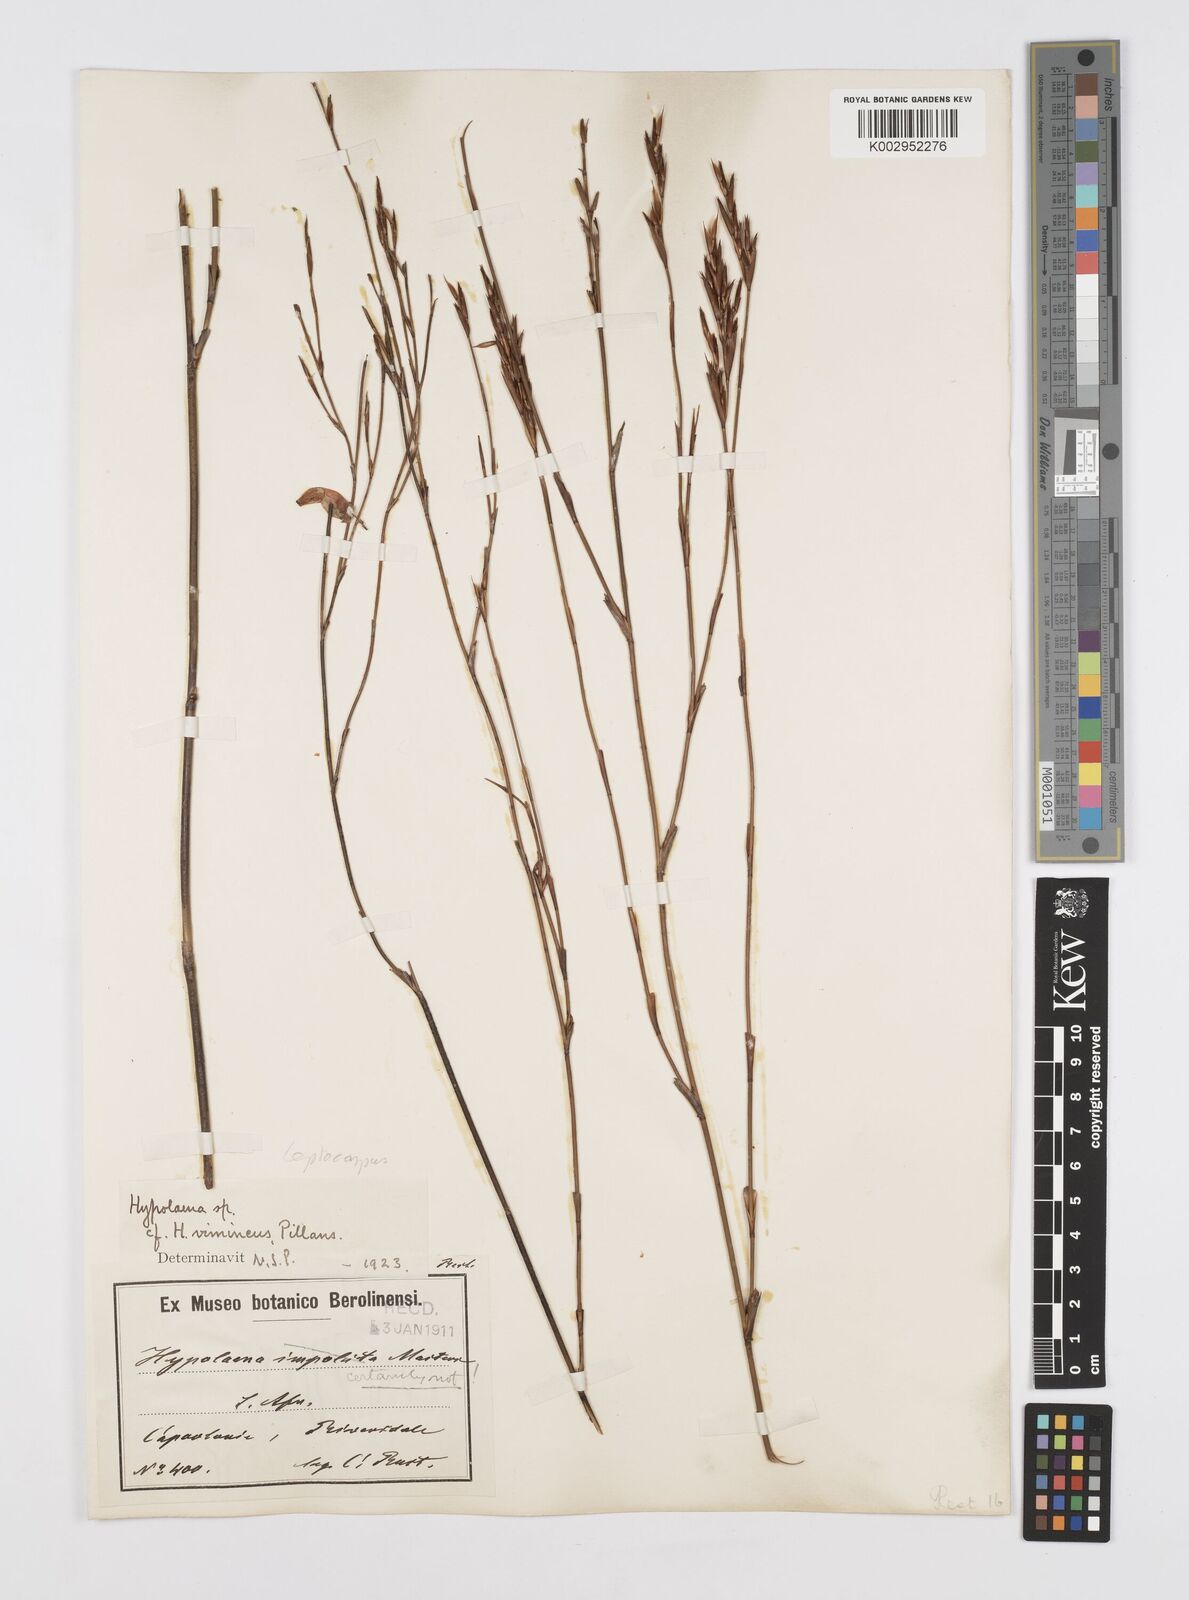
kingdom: Plantae
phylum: Tracheophyta
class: Liliopsida
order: Poales
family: Restionaceae
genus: Restio
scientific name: Restio
